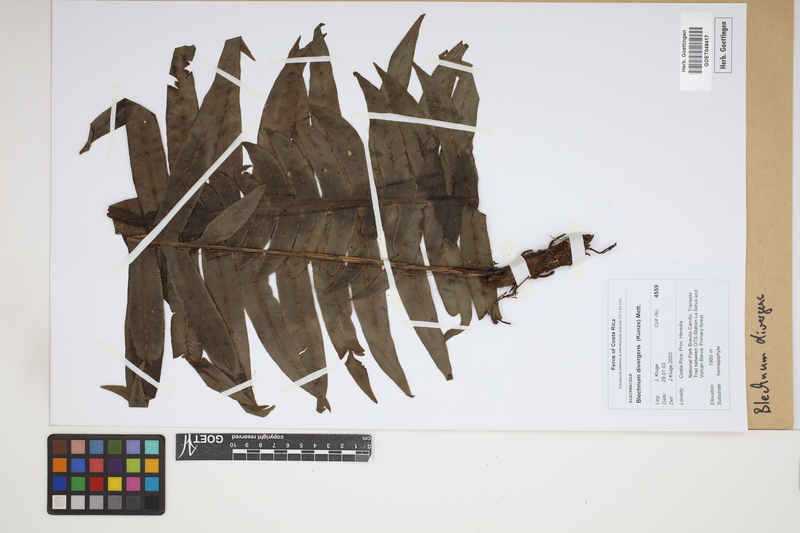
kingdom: Plantae
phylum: Tracheophyta
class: Polypodiopsida
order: Polypodiales
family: Blechnaceae
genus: Austroblechnum
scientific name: Austroblechnum divergens
